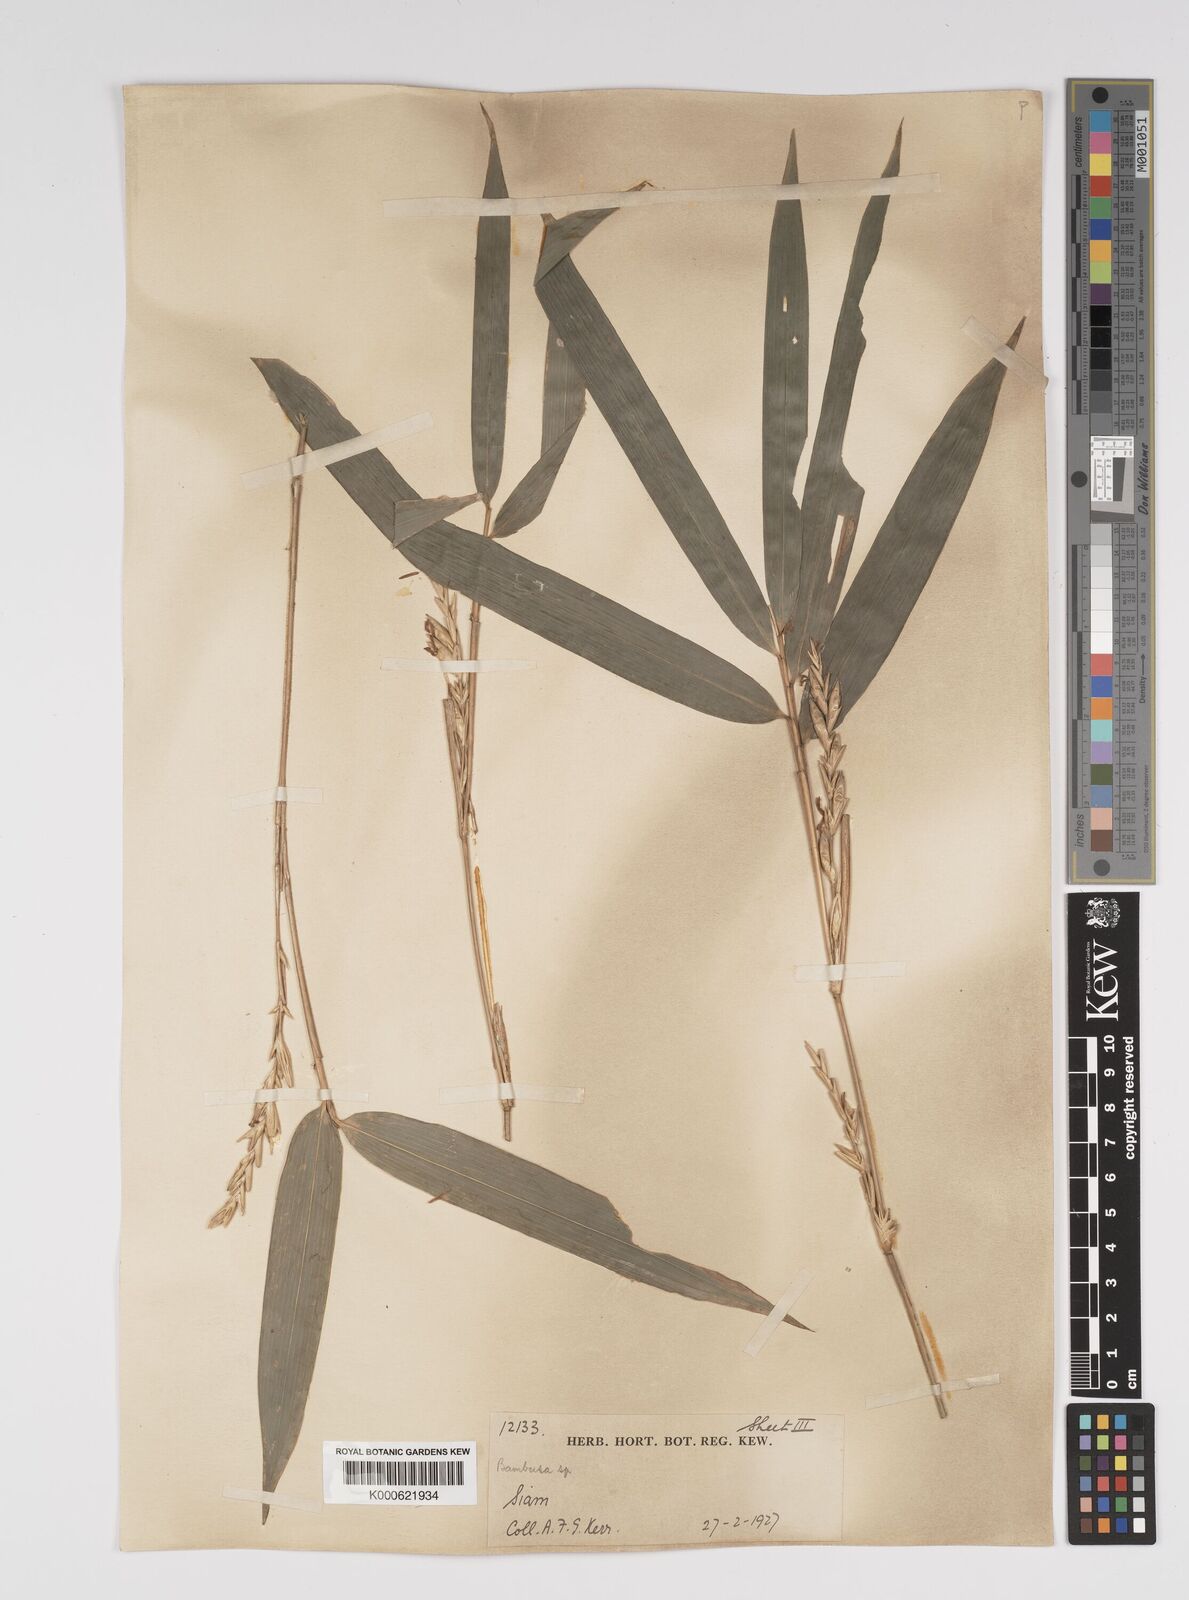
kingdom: Plantae
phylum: Tracheophyta
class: Liliopsida
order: Poales
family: Poaceae
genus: Bambusa
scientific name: Bambusa
